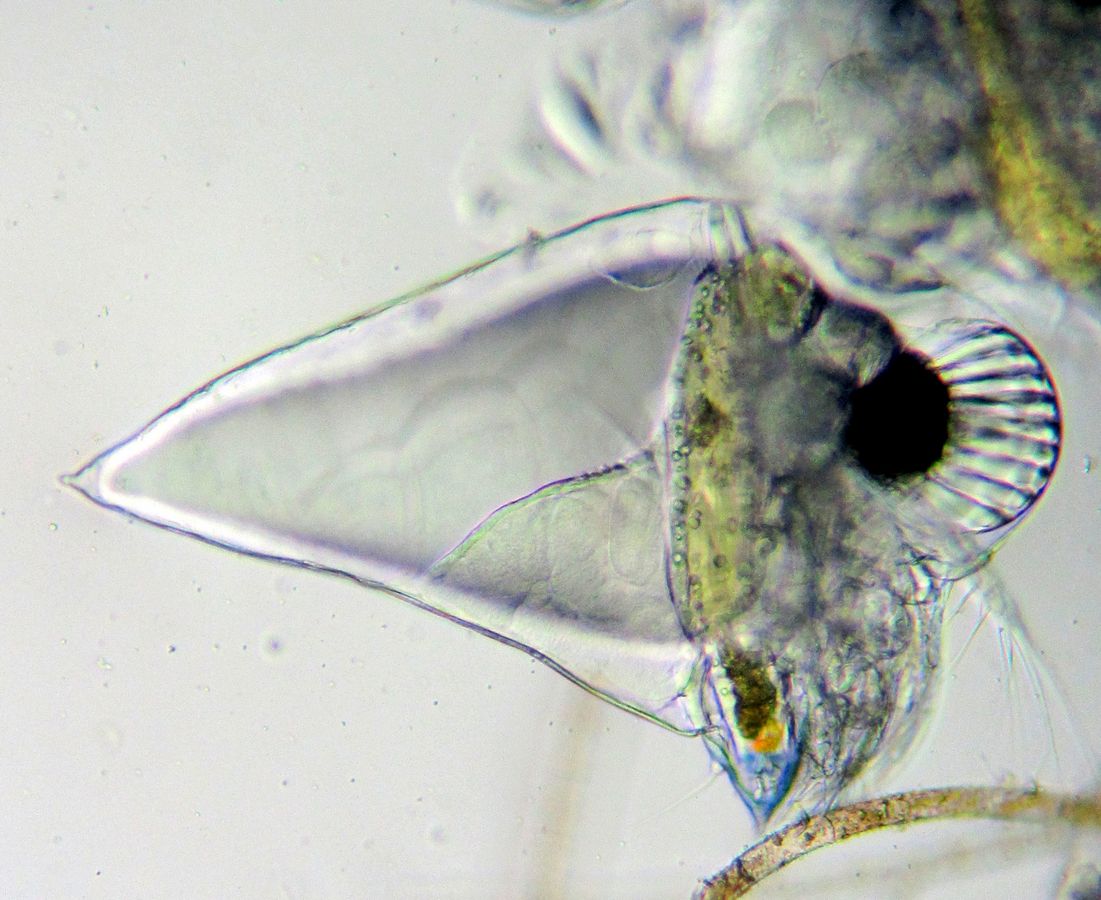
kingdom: Animalia
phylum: Arthropoda
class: Branchiopoda
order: Diplostraca
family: Podonidae
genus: Evadne
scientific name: Evadne nordmanni
